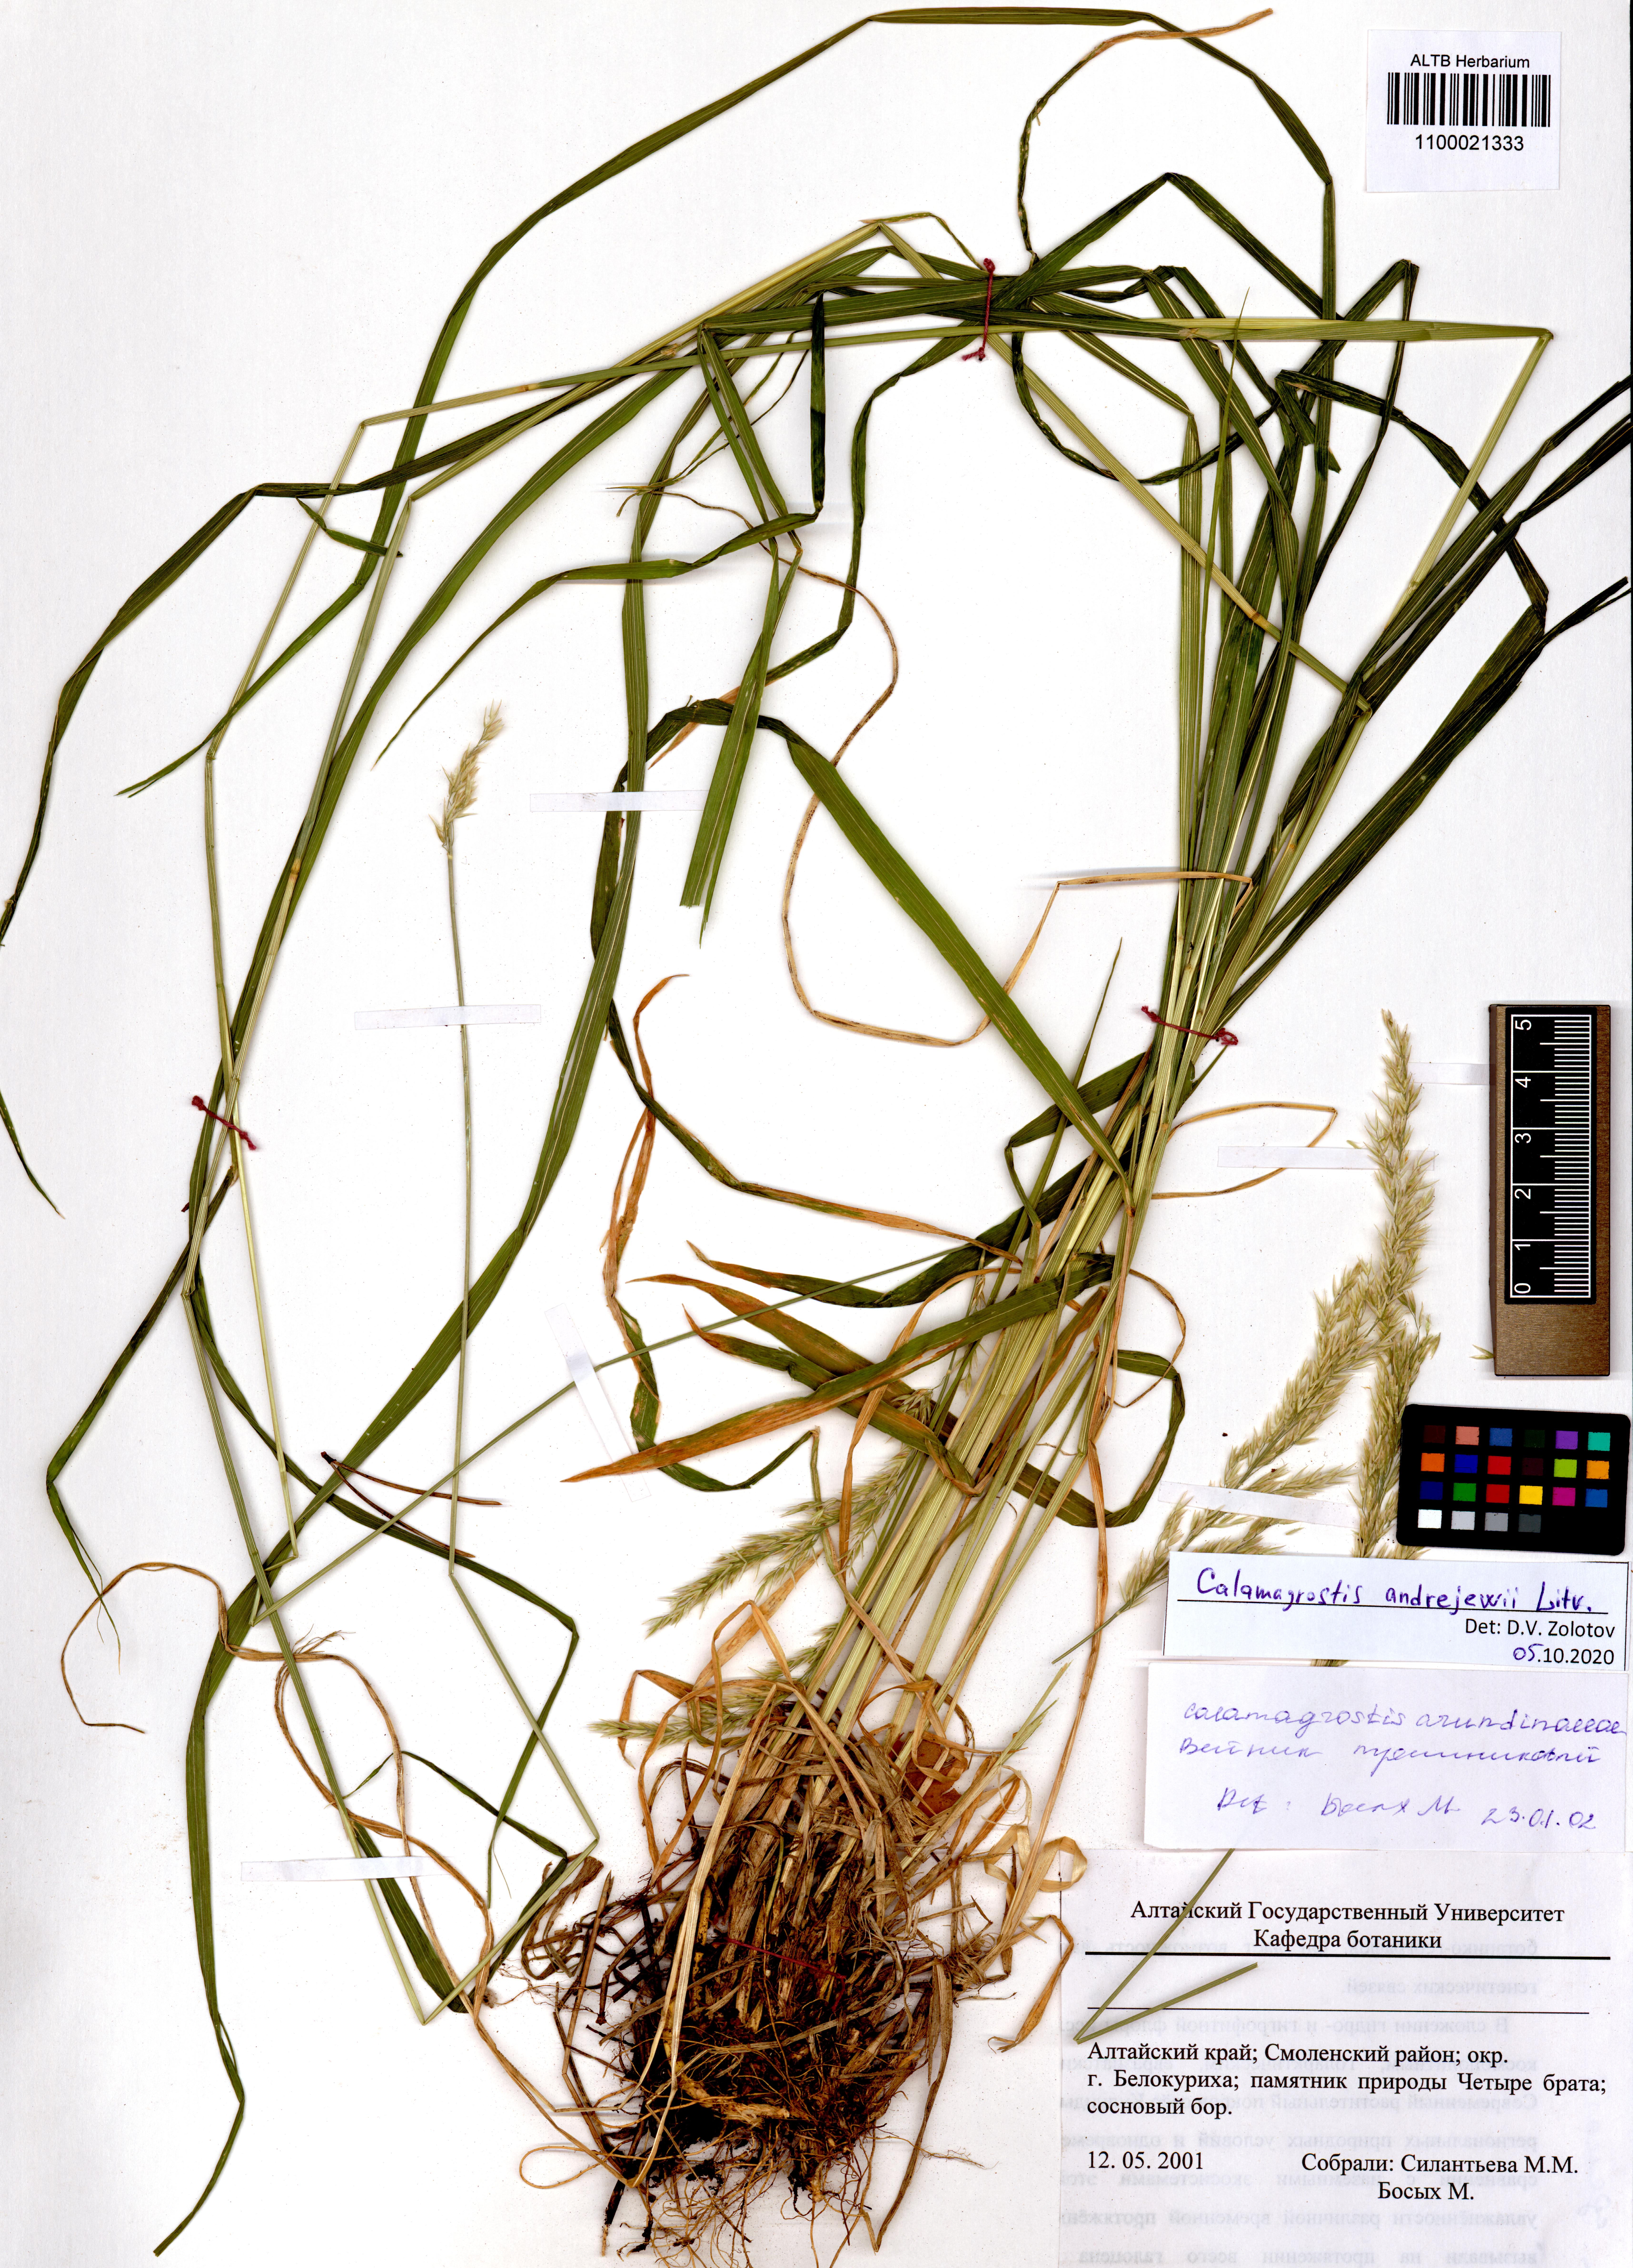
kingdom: Plantae
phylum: Tracheophyta
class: Liliopsida
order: Poales
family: Poaceae
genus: Calamagrostis
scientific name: Calamagrostis andrejewii
